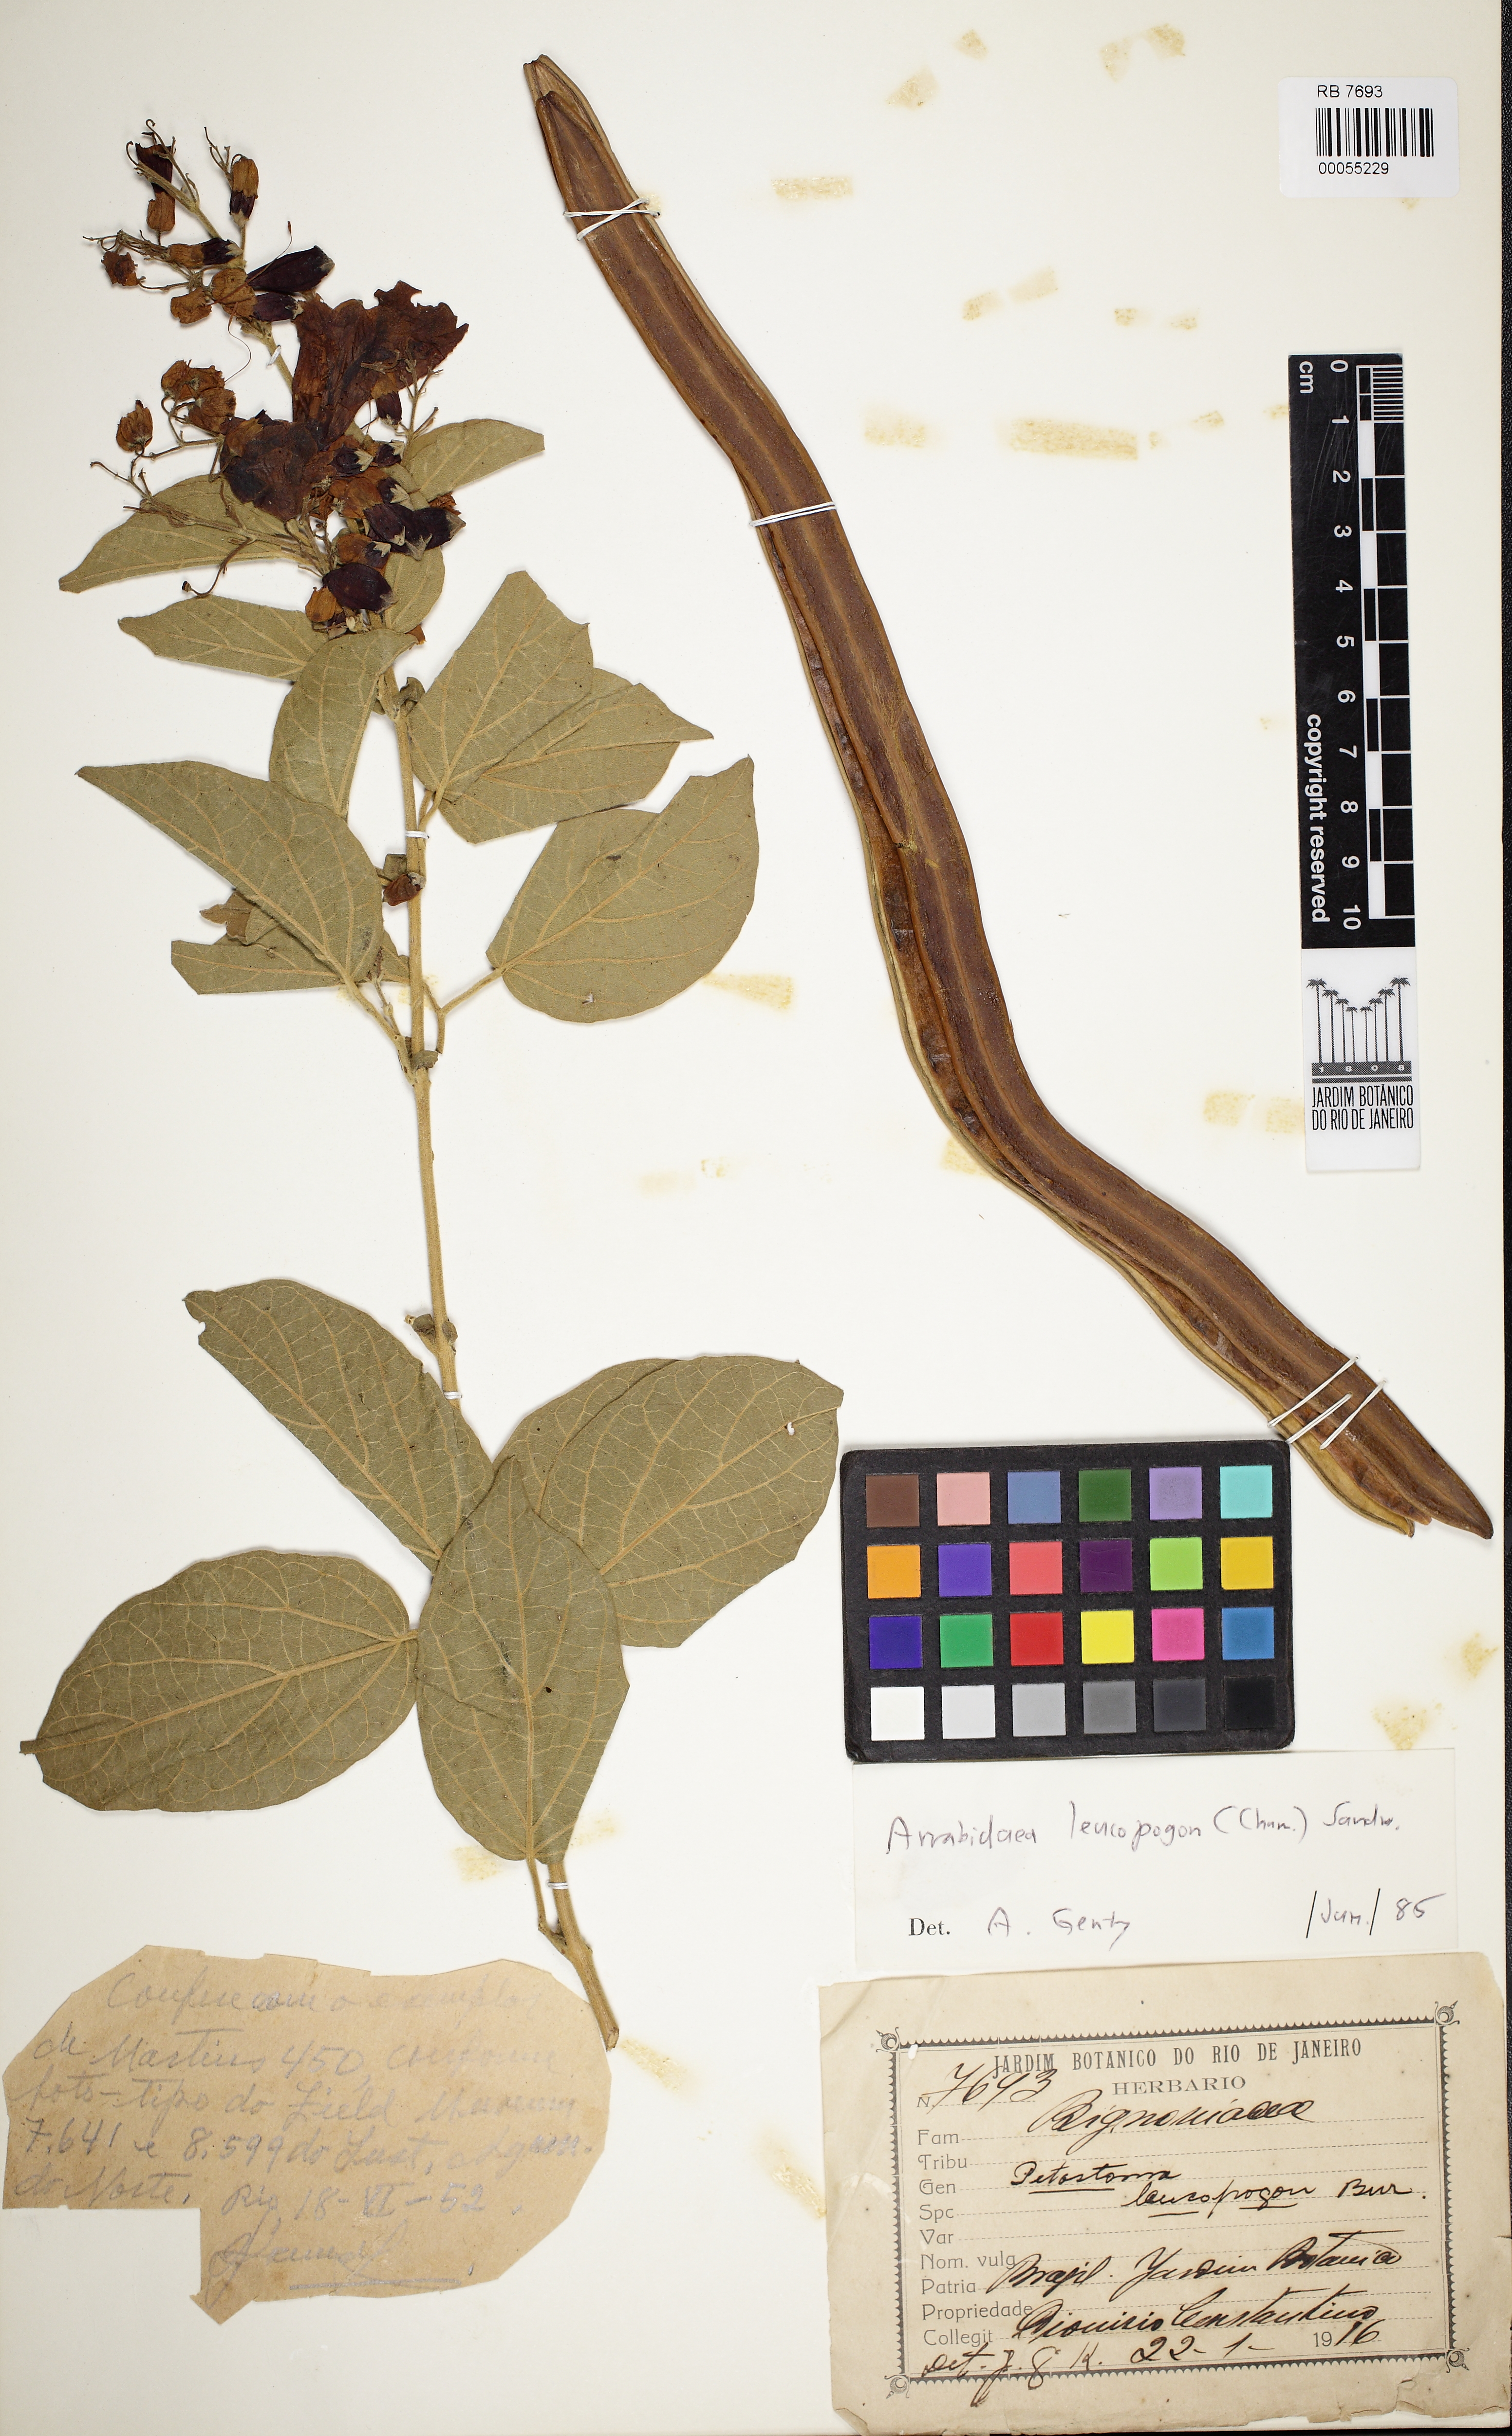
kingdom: Plantae
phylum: Tracheophyta
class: Magnoliopsida
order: Lamiales
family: Bignoniaceae
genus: Fridericia
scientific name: Fridericia leucopogon
